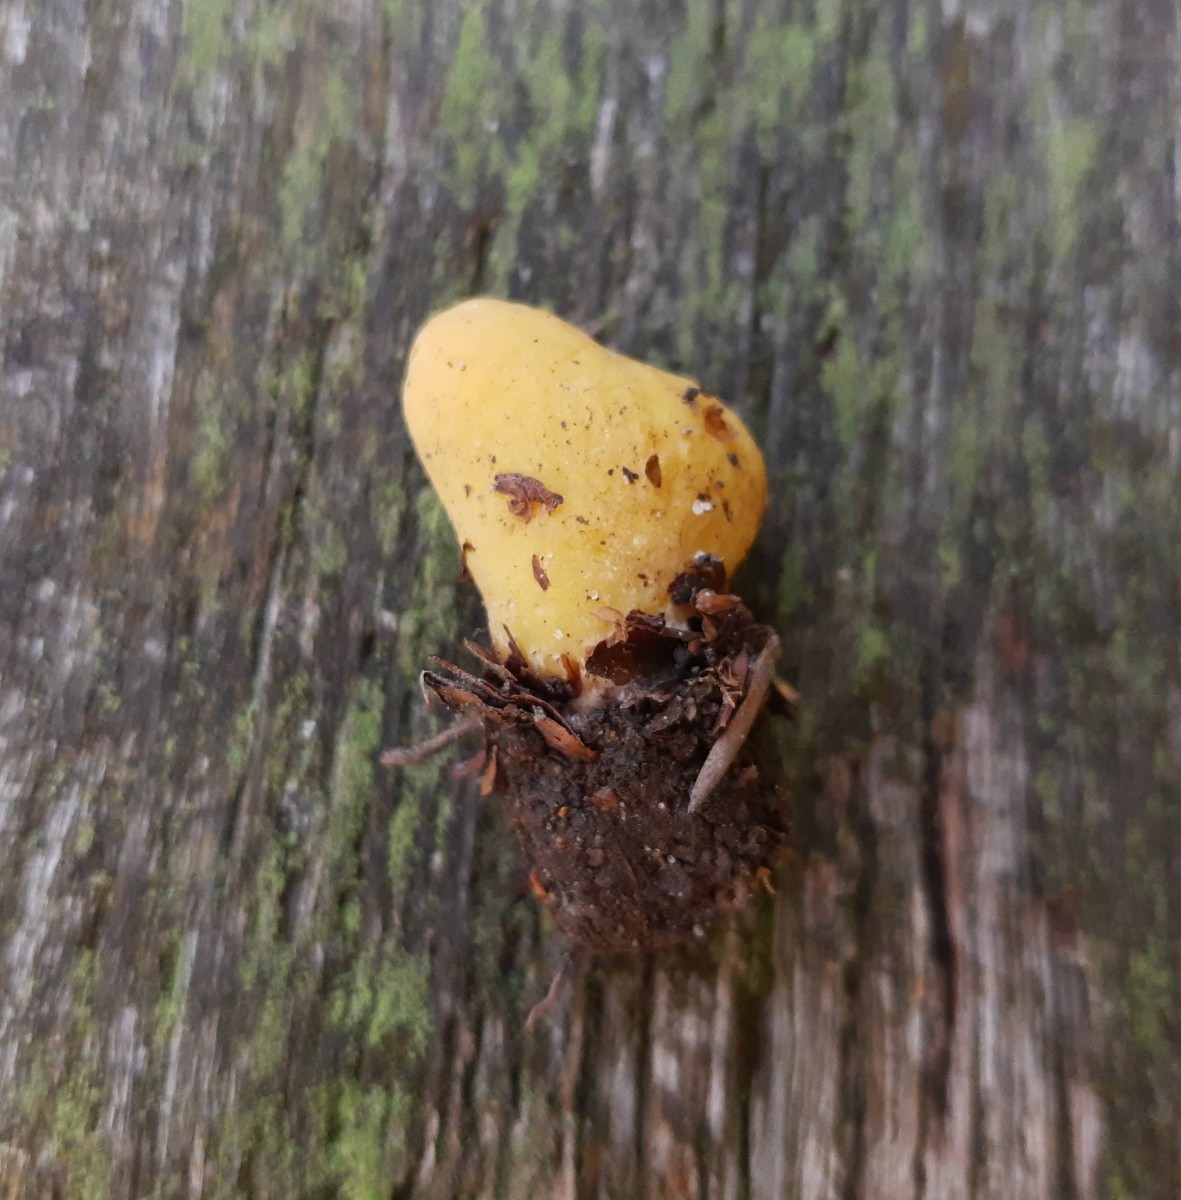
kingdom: Fungi
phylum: Ascomycota
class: Pezizomycetes
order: Pezizales
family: Otideaceae
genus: Otidea
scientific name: Otidea cantharella
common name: citrongul ørebæger
